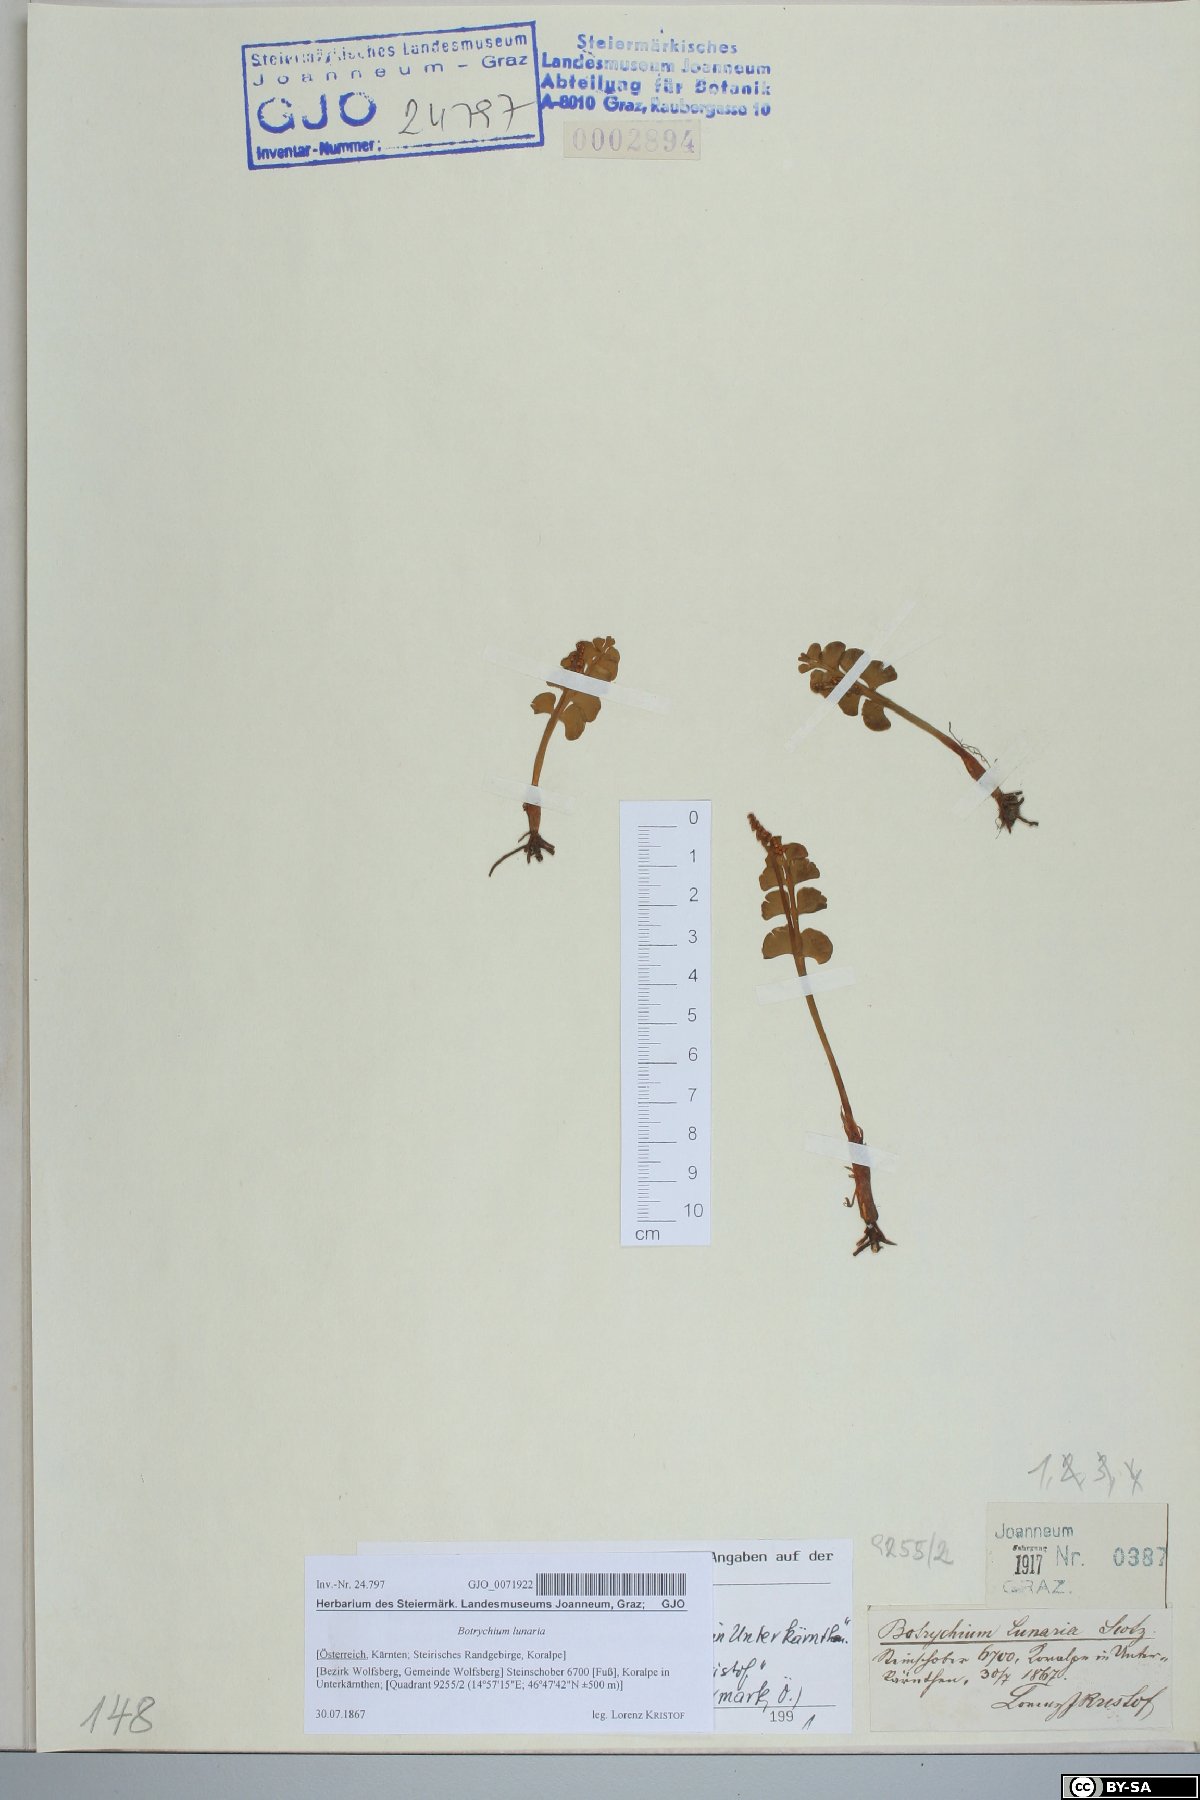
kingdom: Plantae
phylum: Tracheophyta
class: Polypodiopsida
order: Ophioglossales
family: Ophioglossaceae
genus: Botrychium
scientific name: Botrychium lunaria
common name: Moonwort
